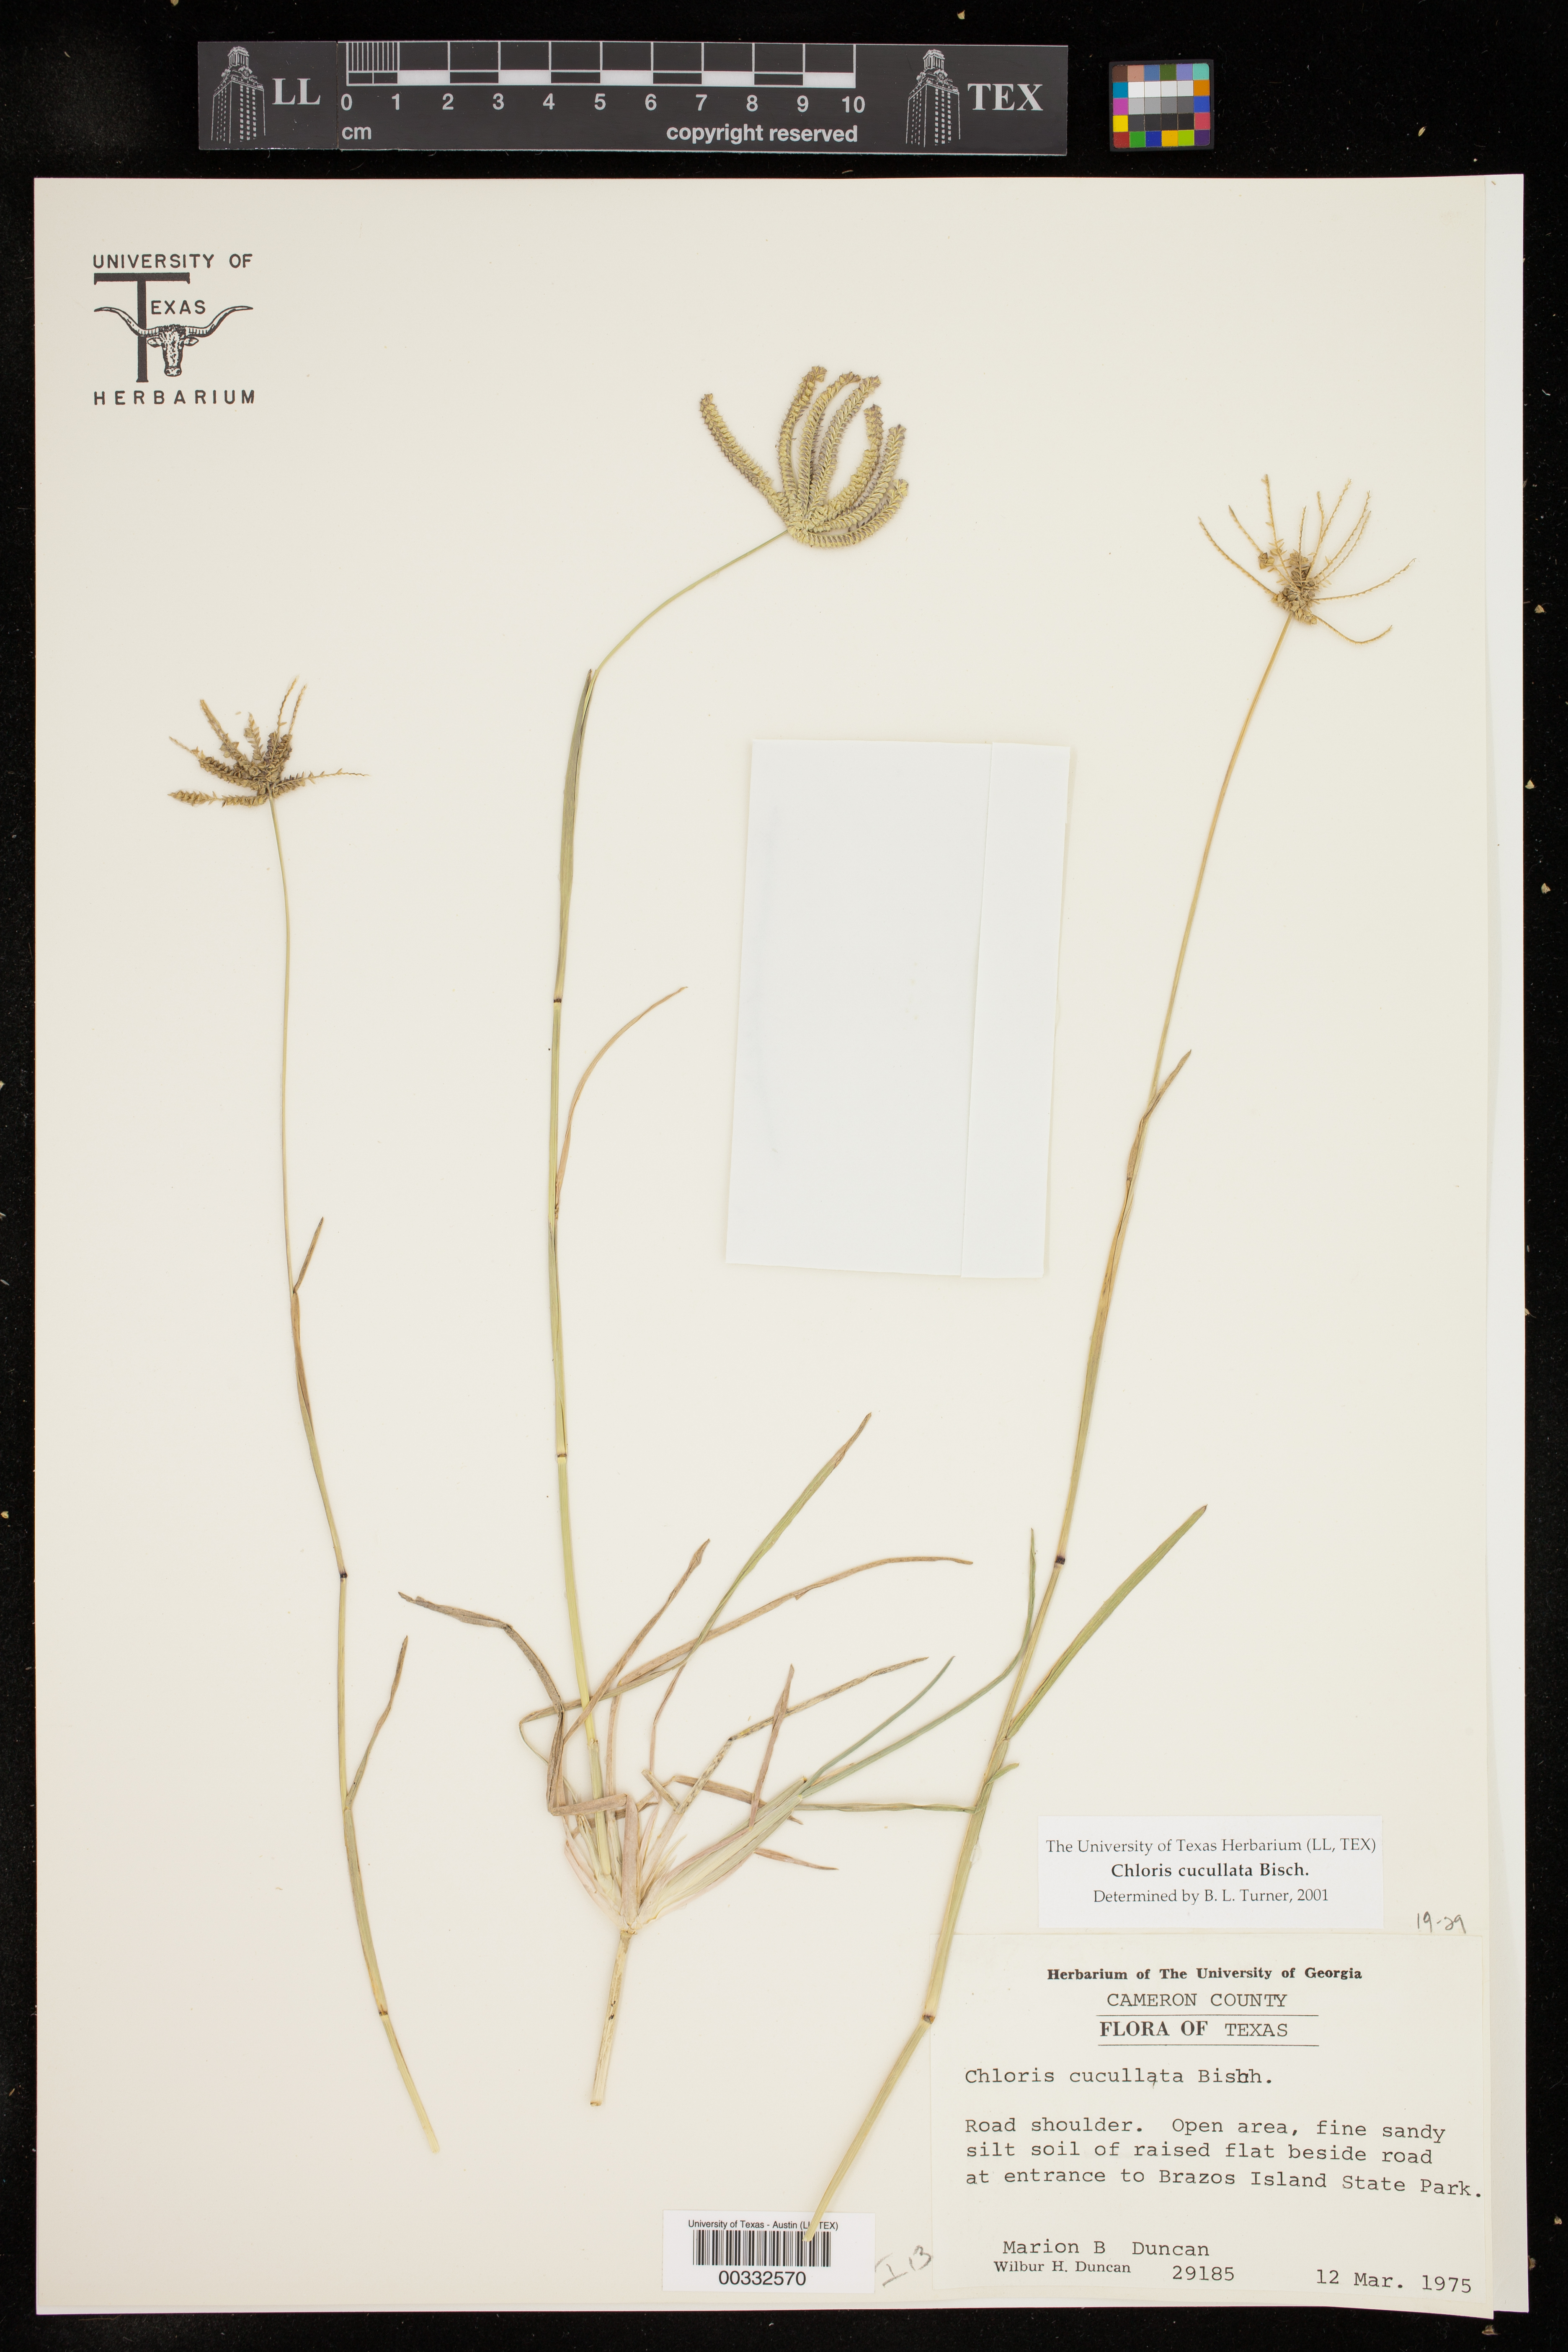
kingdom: Plantae
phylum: Tracheophyta
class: Liliopsida
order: Poales
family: Poaceae
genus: Chloris
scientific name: Chloris cucullata
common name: Hooded windmill grass
